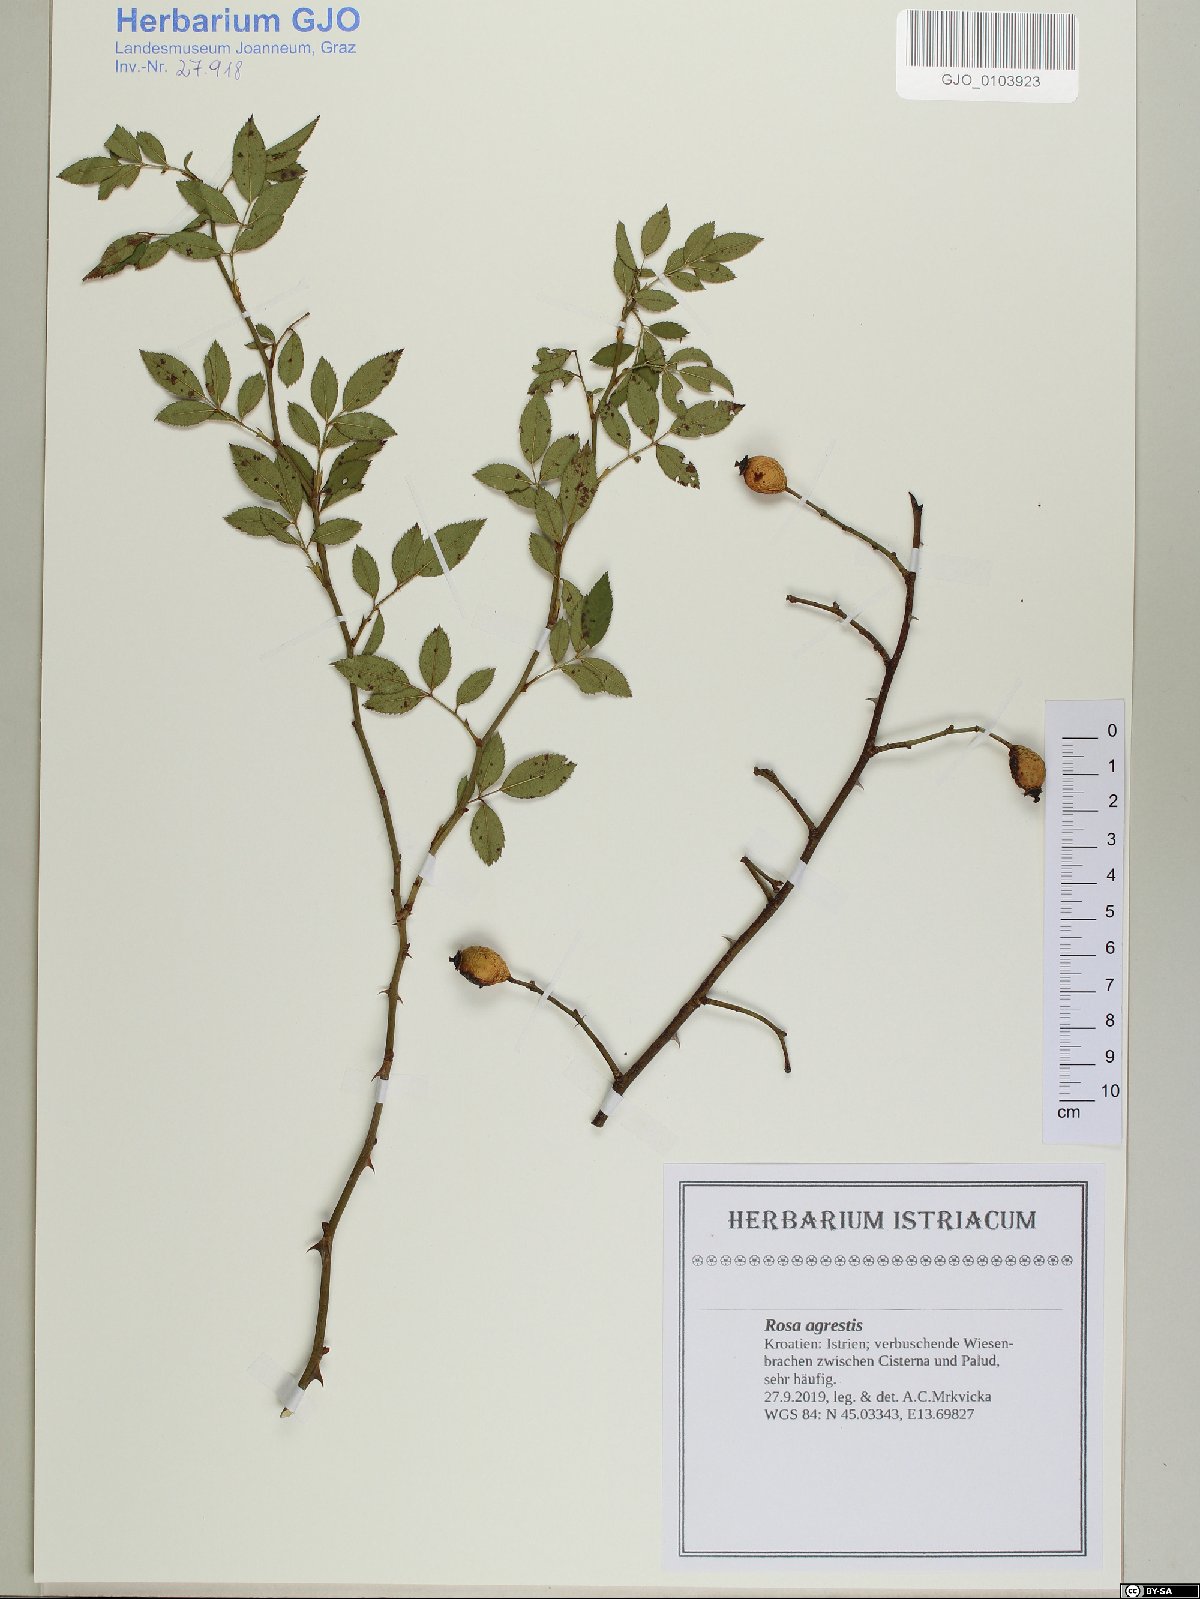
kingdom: Plantae
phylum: Tracheophyta
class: Magnoliopsida
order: Rosales
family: Rosaceae
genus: Rosa
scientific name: Rosa agrestis
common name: Fieldbriar
